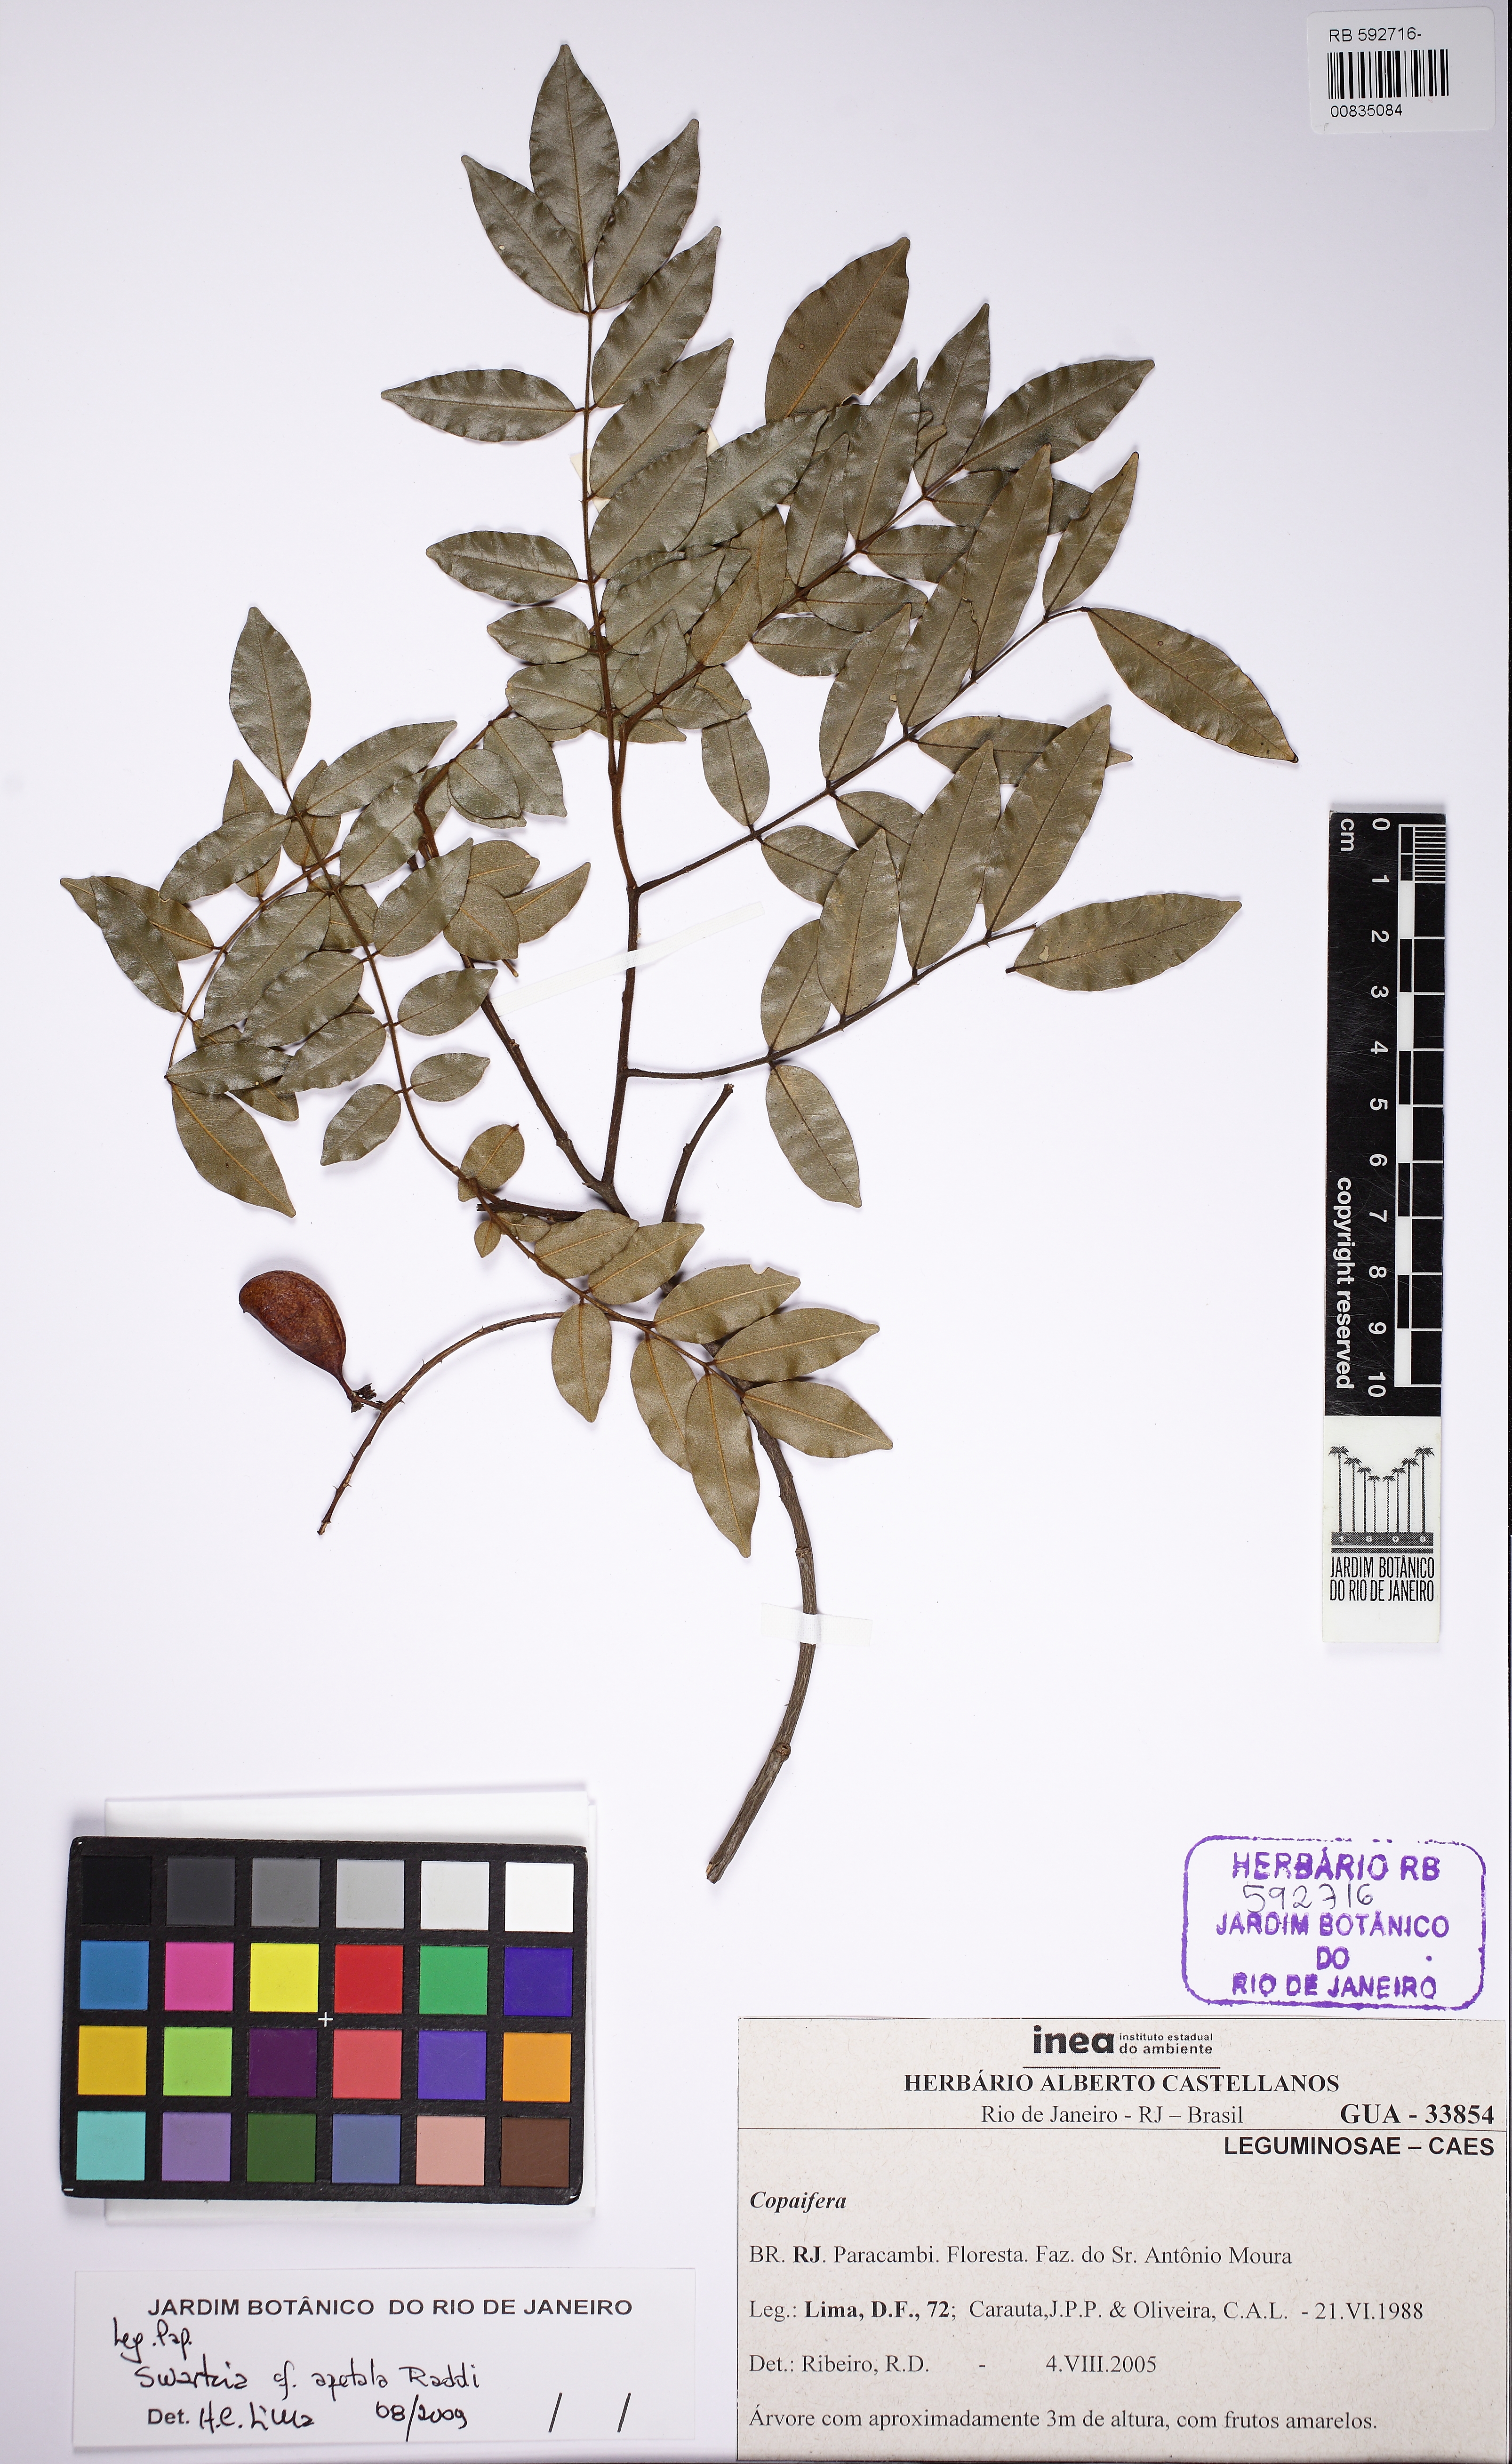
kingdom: Plantae
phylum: Tracheophyta
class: Magnoliopsida
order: Fabales
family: Fabaceae
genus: Swartzia
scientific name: Swartzia apetala
